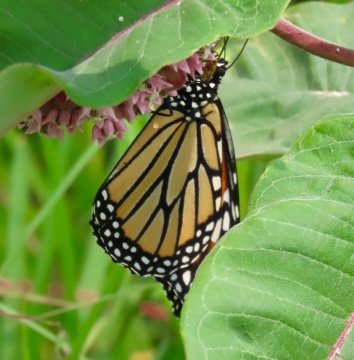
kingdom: Animalia
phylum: Arthropoda
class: Insecta
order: Lepidoptera
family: Nymphalidae
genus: Danaus
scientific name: Danaus plexippus
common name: Monarch
